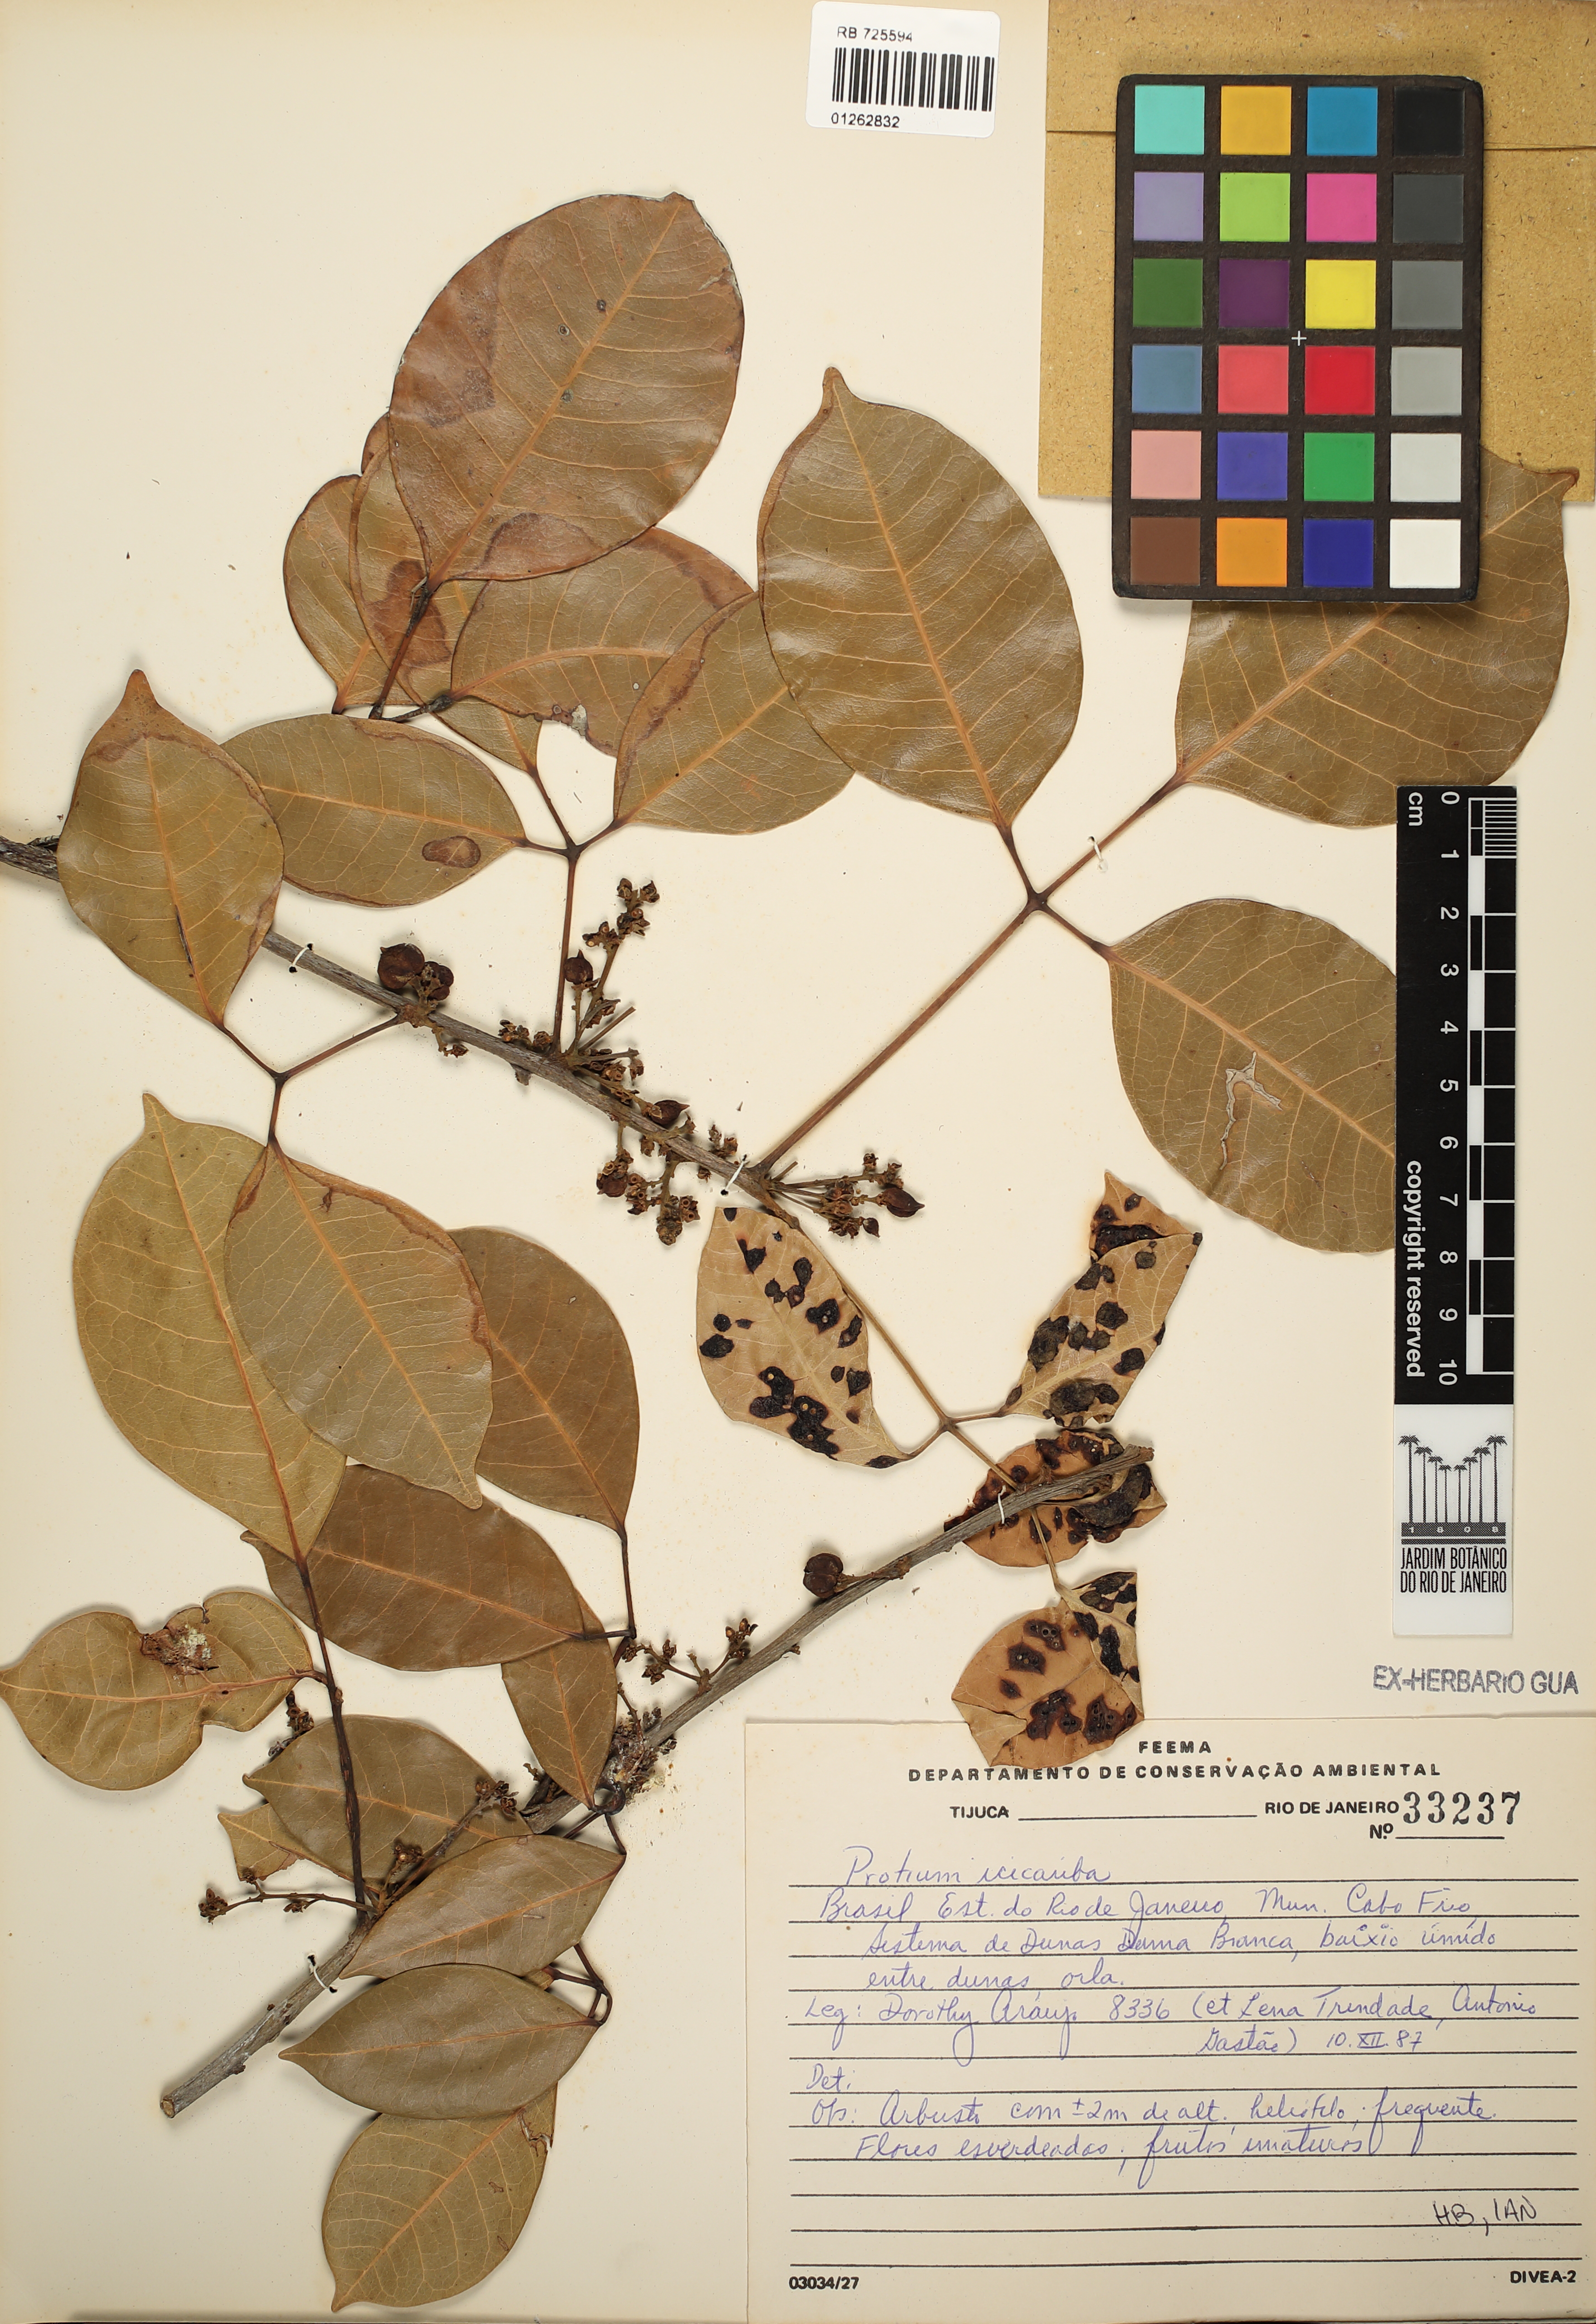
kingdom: Plantae
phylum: Tracheophyta
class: Magnoliopsida
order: Sapindales
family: Burseraceae
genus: Protium
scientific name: Protium icicariba
